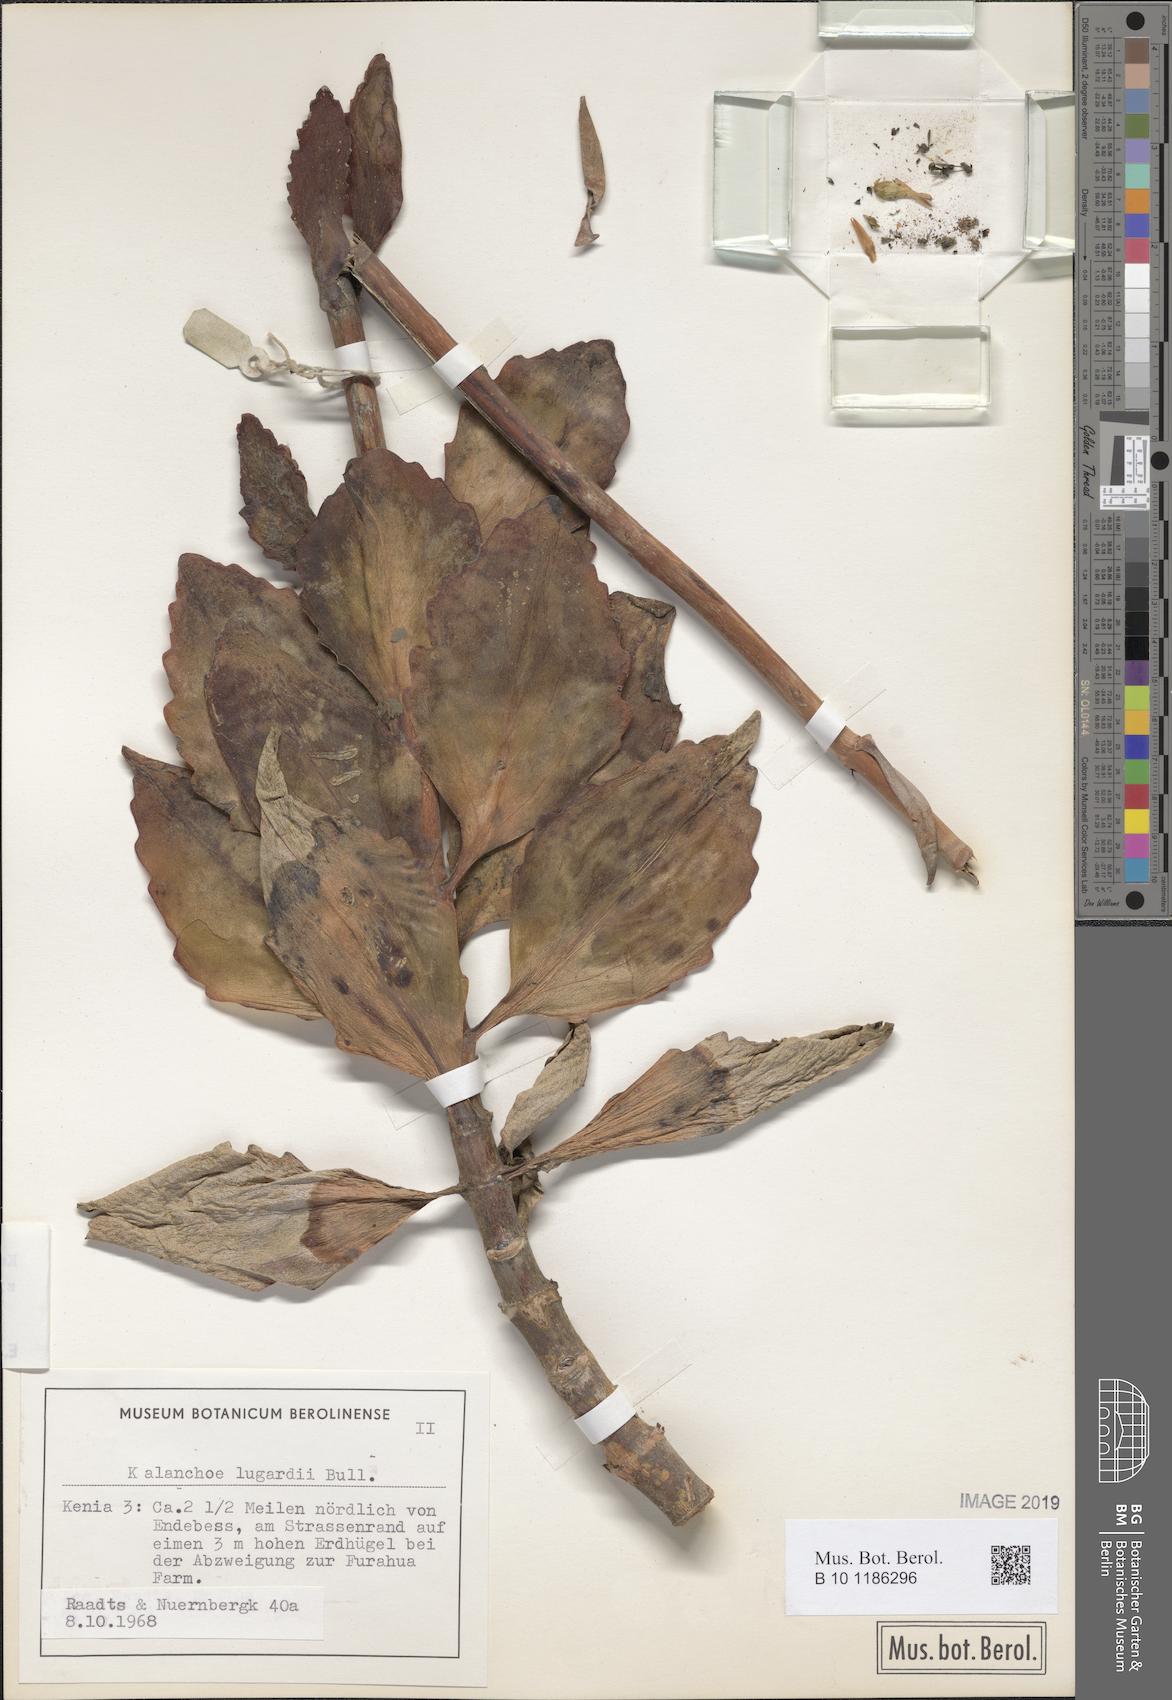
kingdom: Plantae
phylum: Tracheophyta
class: Magnoliopsida
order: Saxifragales
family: Crassulaceae
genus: Kalanchoe
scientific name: Kalanchoe prittwitzii
